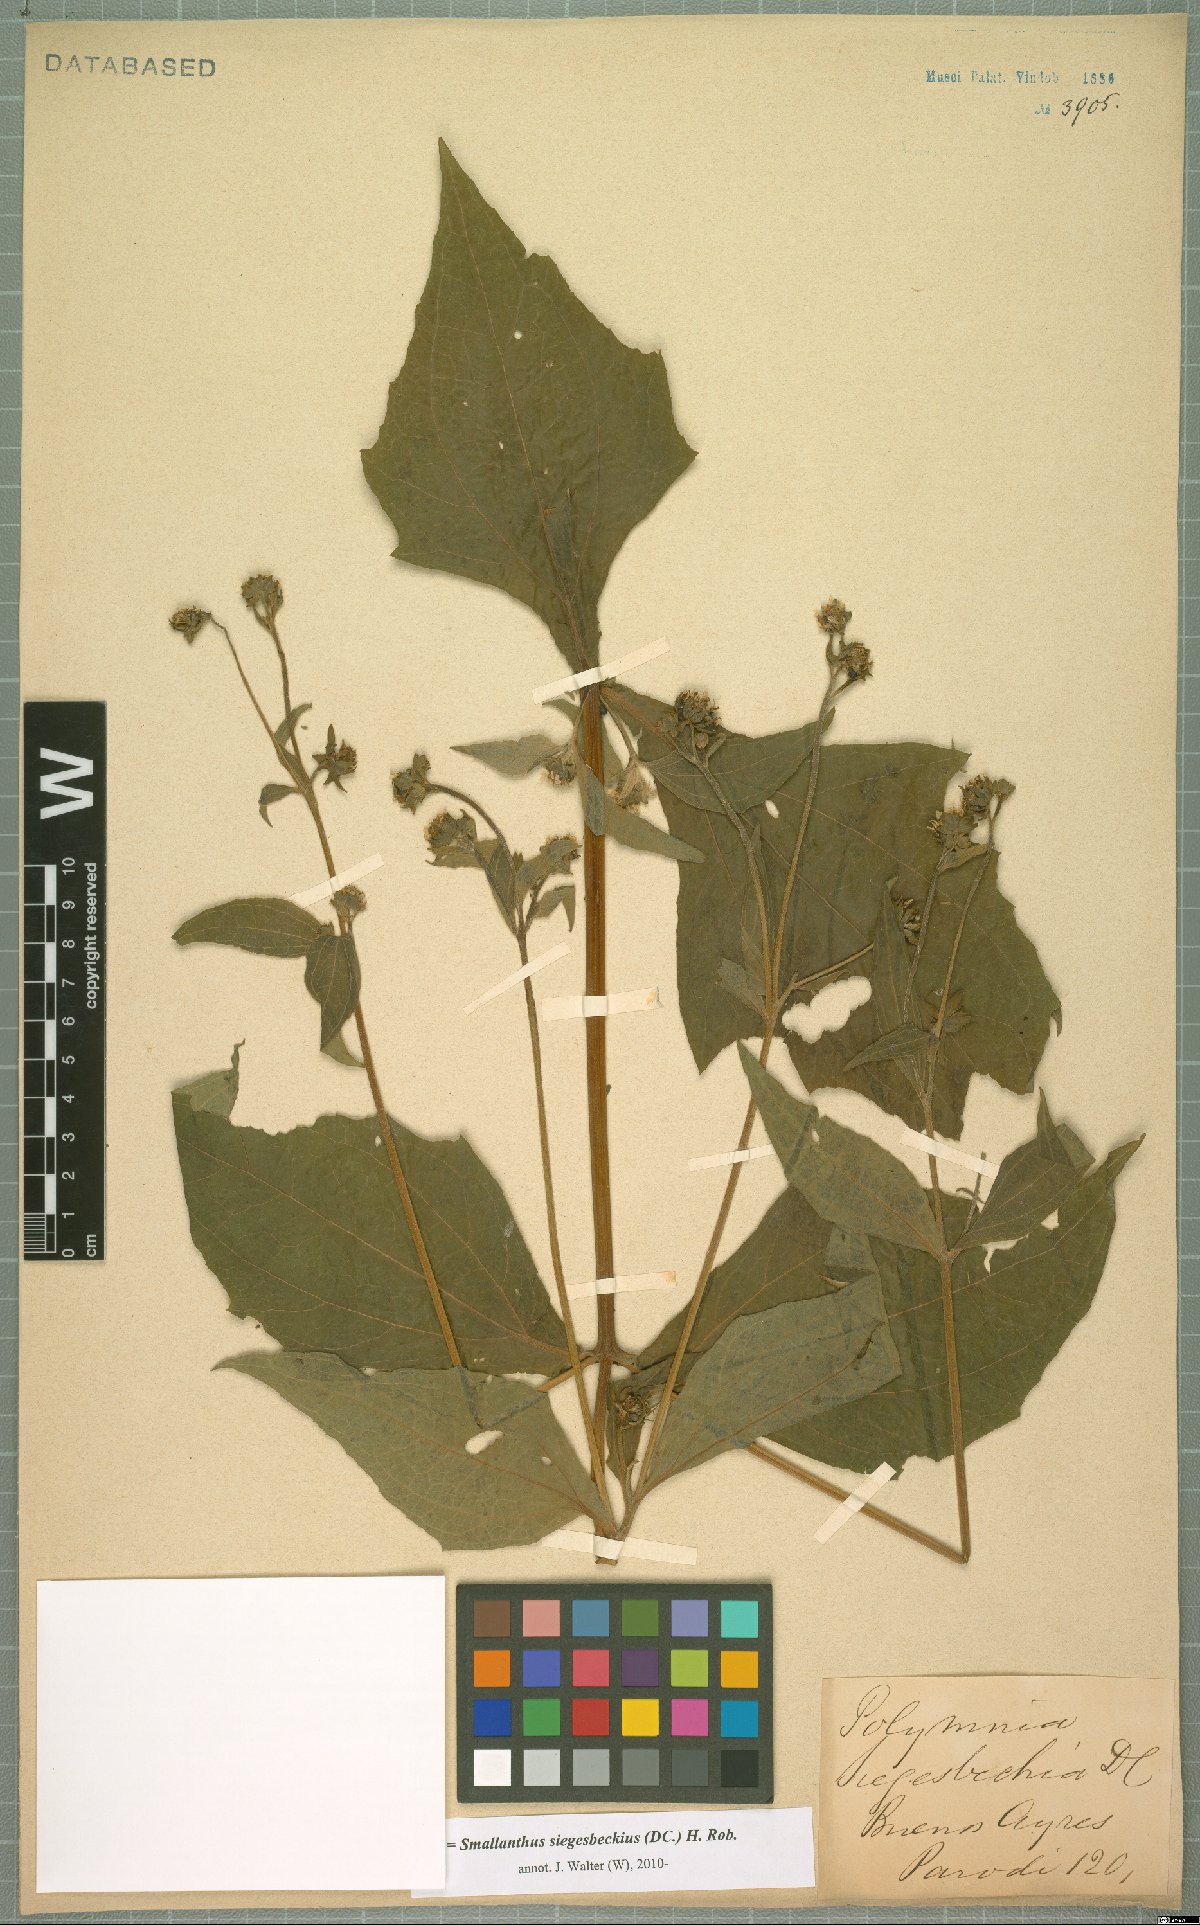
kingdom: Plantae
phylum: Tracheophyta
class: Magnoliopsida
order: Asterales
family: Asteraceae
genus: Smallanthus
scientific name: Smallanthus siegesbeckius
